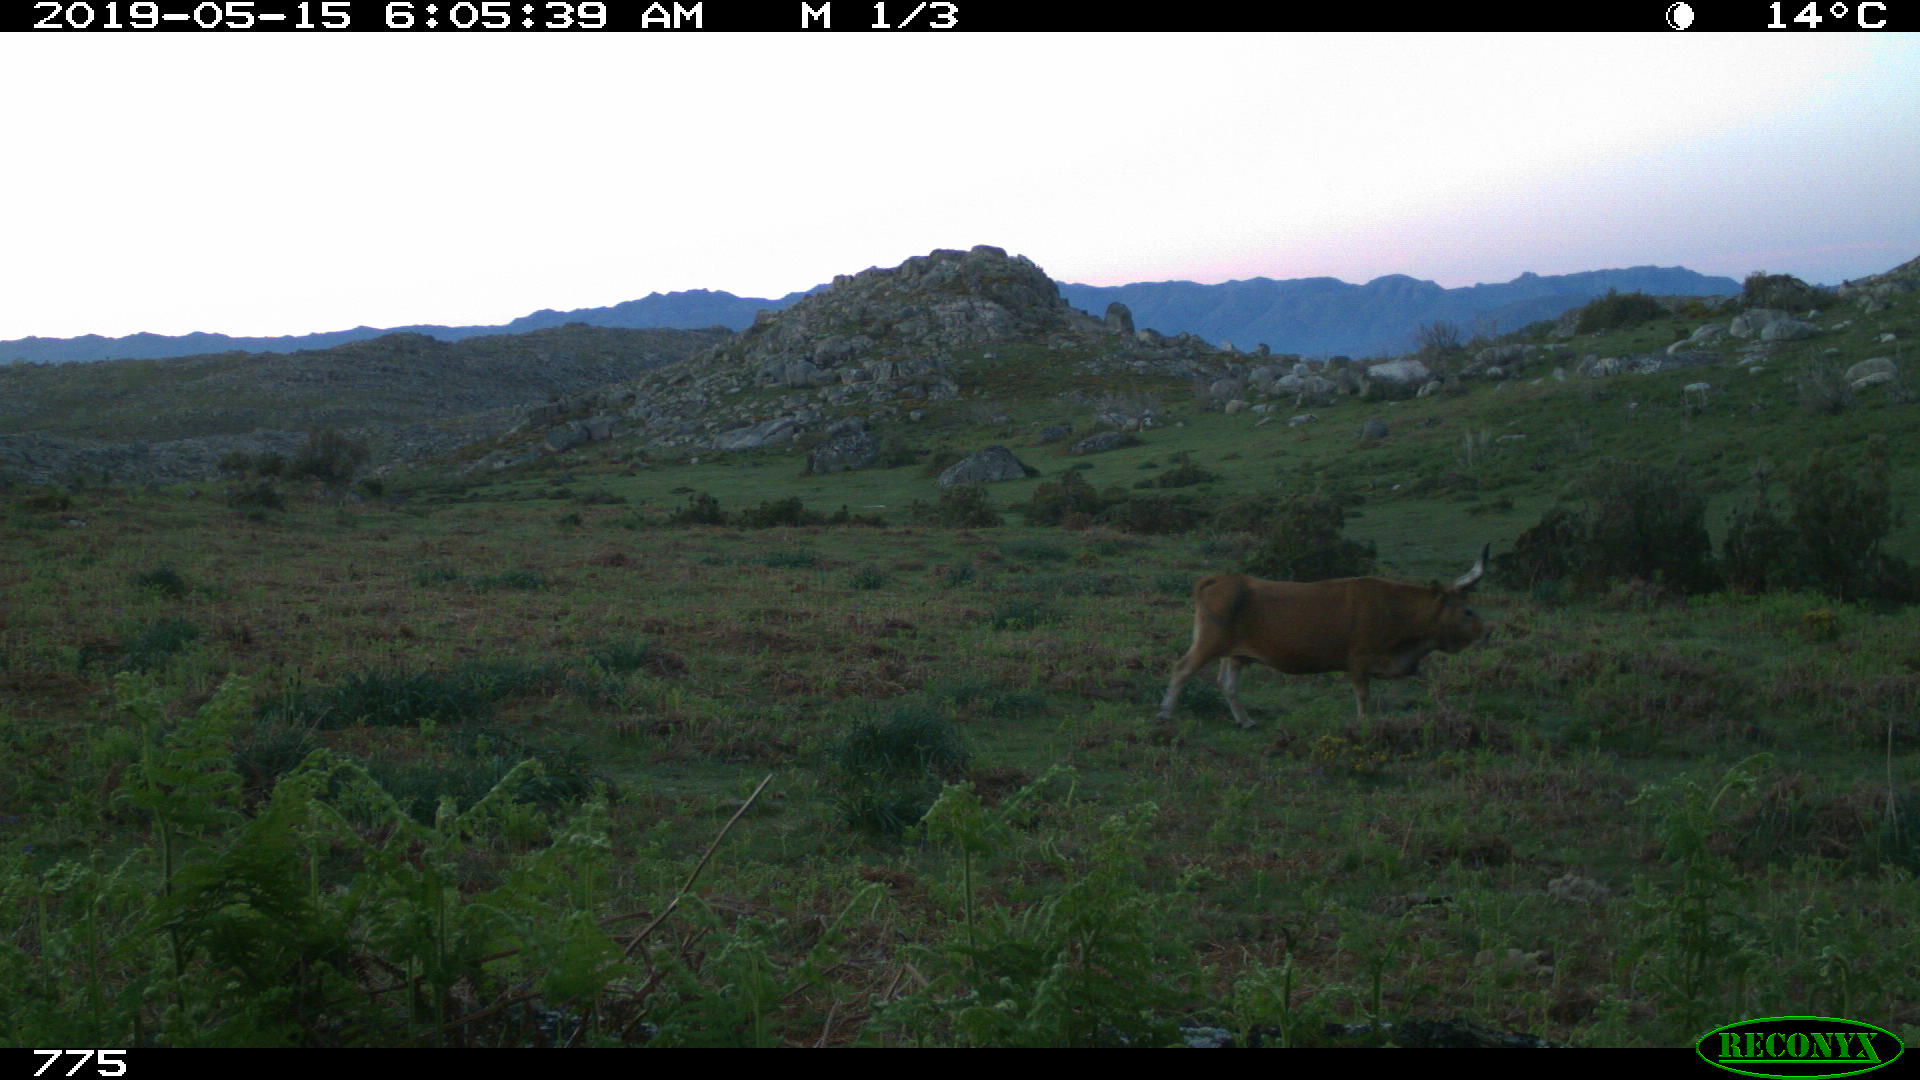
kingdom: Animalia
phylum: Chordata
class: Mammalia
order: Artiodactyla
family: Bovidae
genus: Bos
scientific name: Bos taurus
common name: Domesticated cattle
